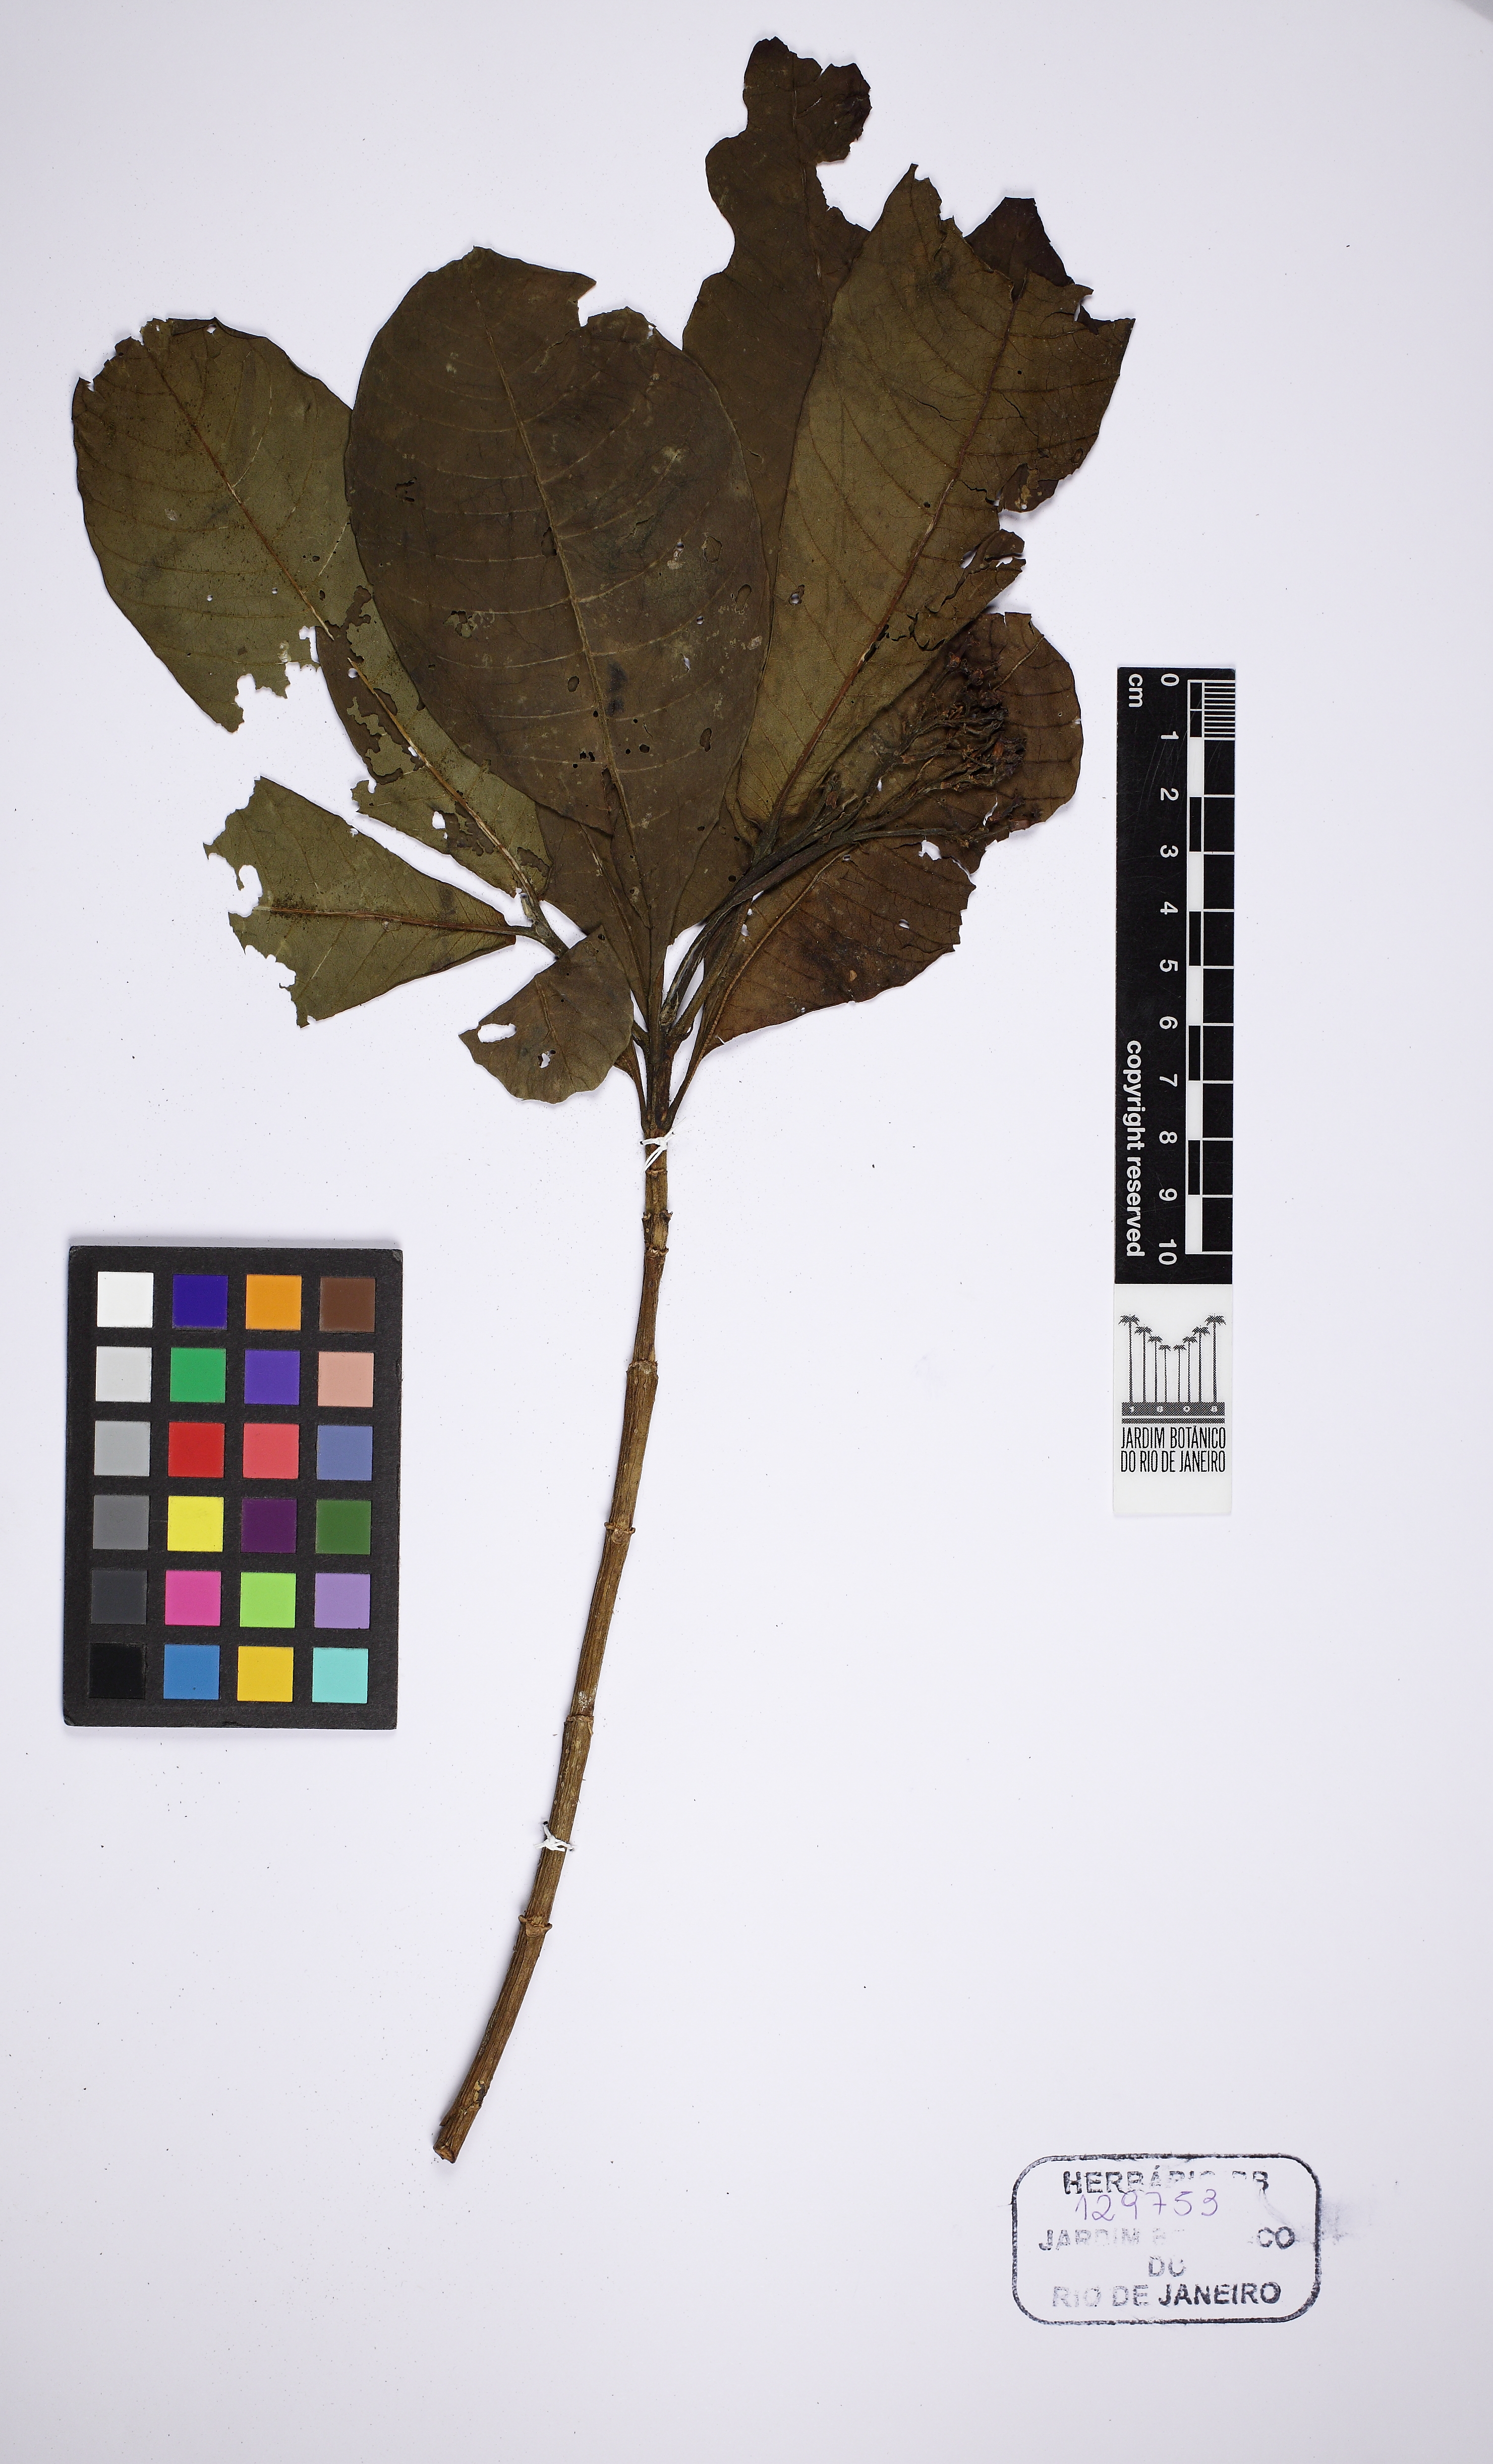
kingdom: Plantae
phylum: Tracheophyta
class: Magnoliopsida
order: Gentianales
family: Apocynaceae
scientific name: Apocynaceae
